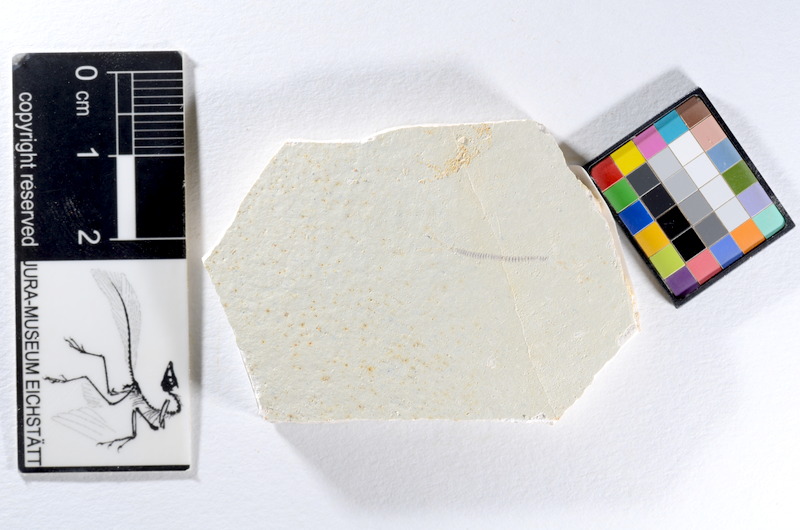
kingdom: Animalia
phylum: Chordata
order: Salmoniformes
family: Orthogonikleithridae
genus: Orthogonikleithrus
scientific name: Orthogonikleithrus hoelli
